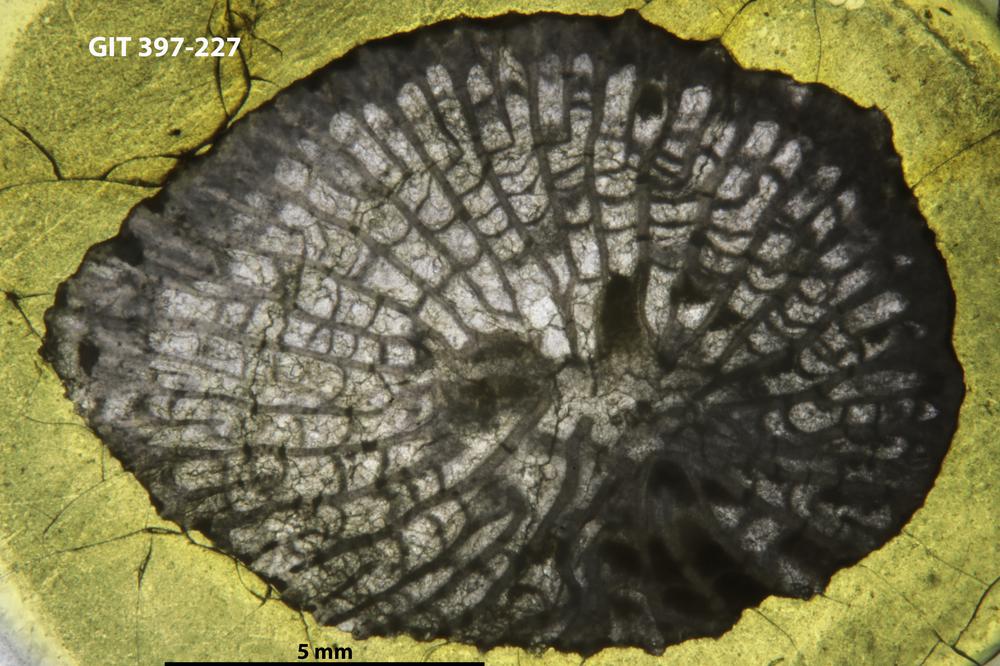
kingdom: Animalia
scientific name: Animalia
